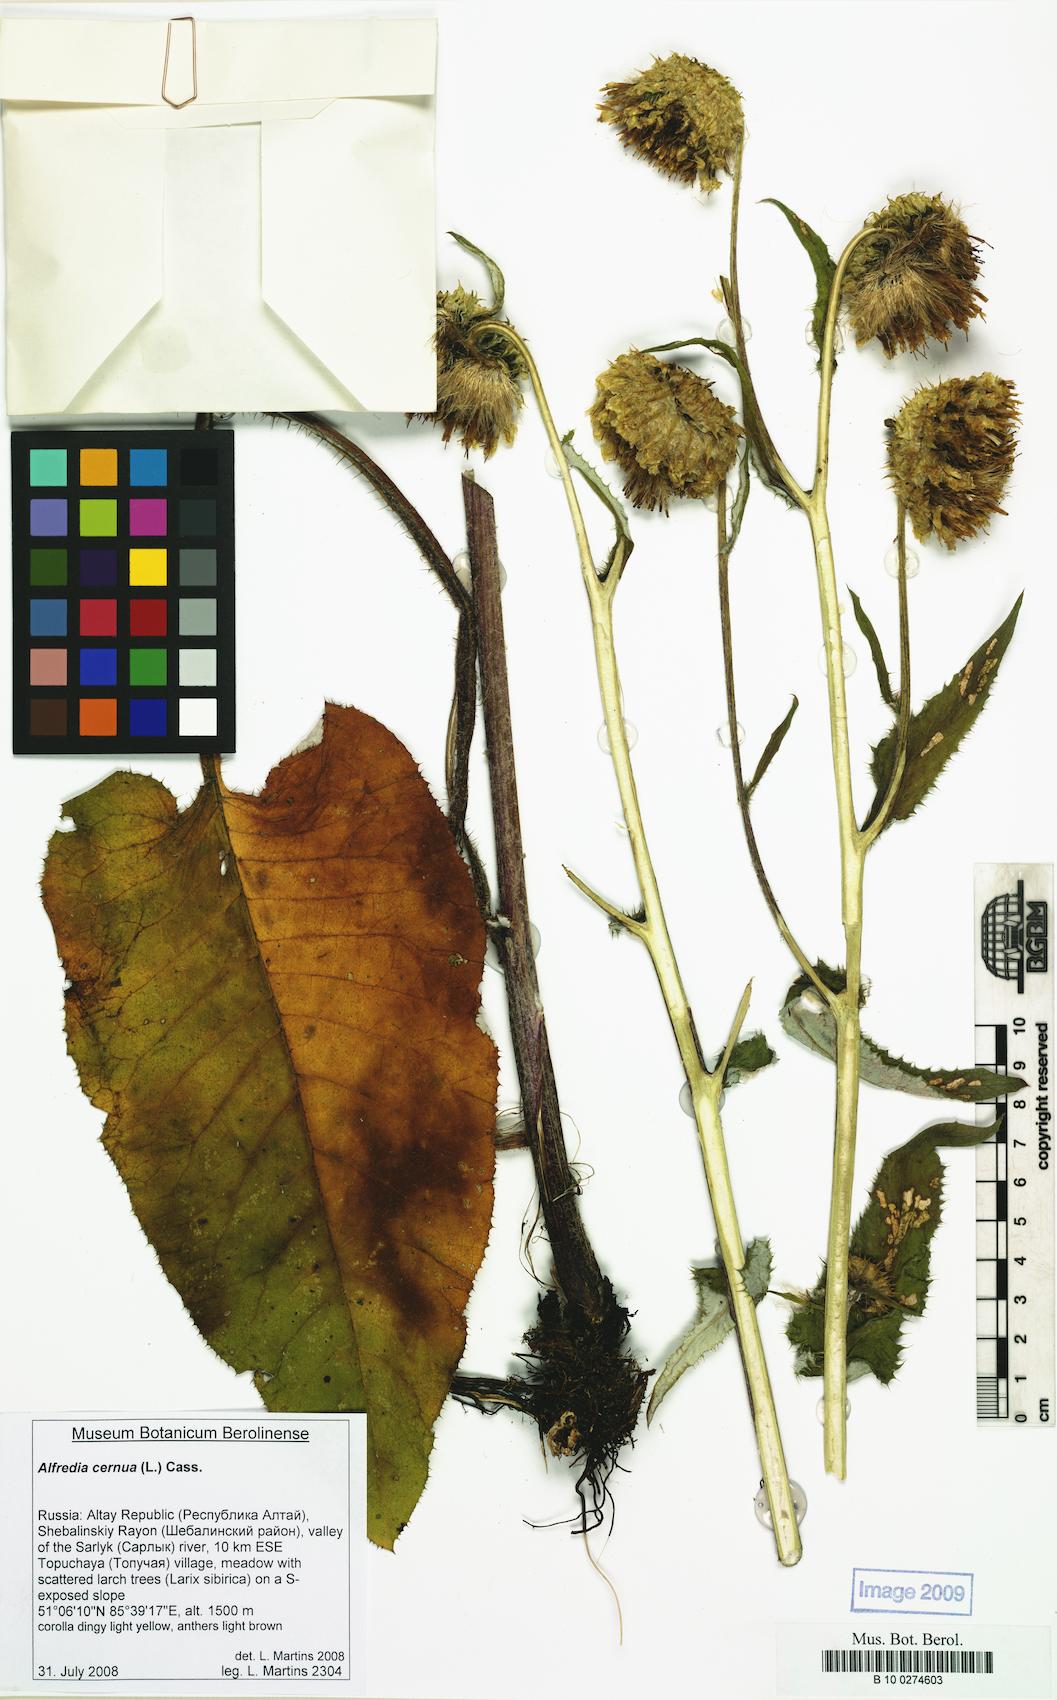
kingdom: Plantae
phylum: Tracheophyta
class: Magnoliopsida
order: Asterales
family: Asteraceae
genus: Alfredia
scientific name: Alfredia cernua
